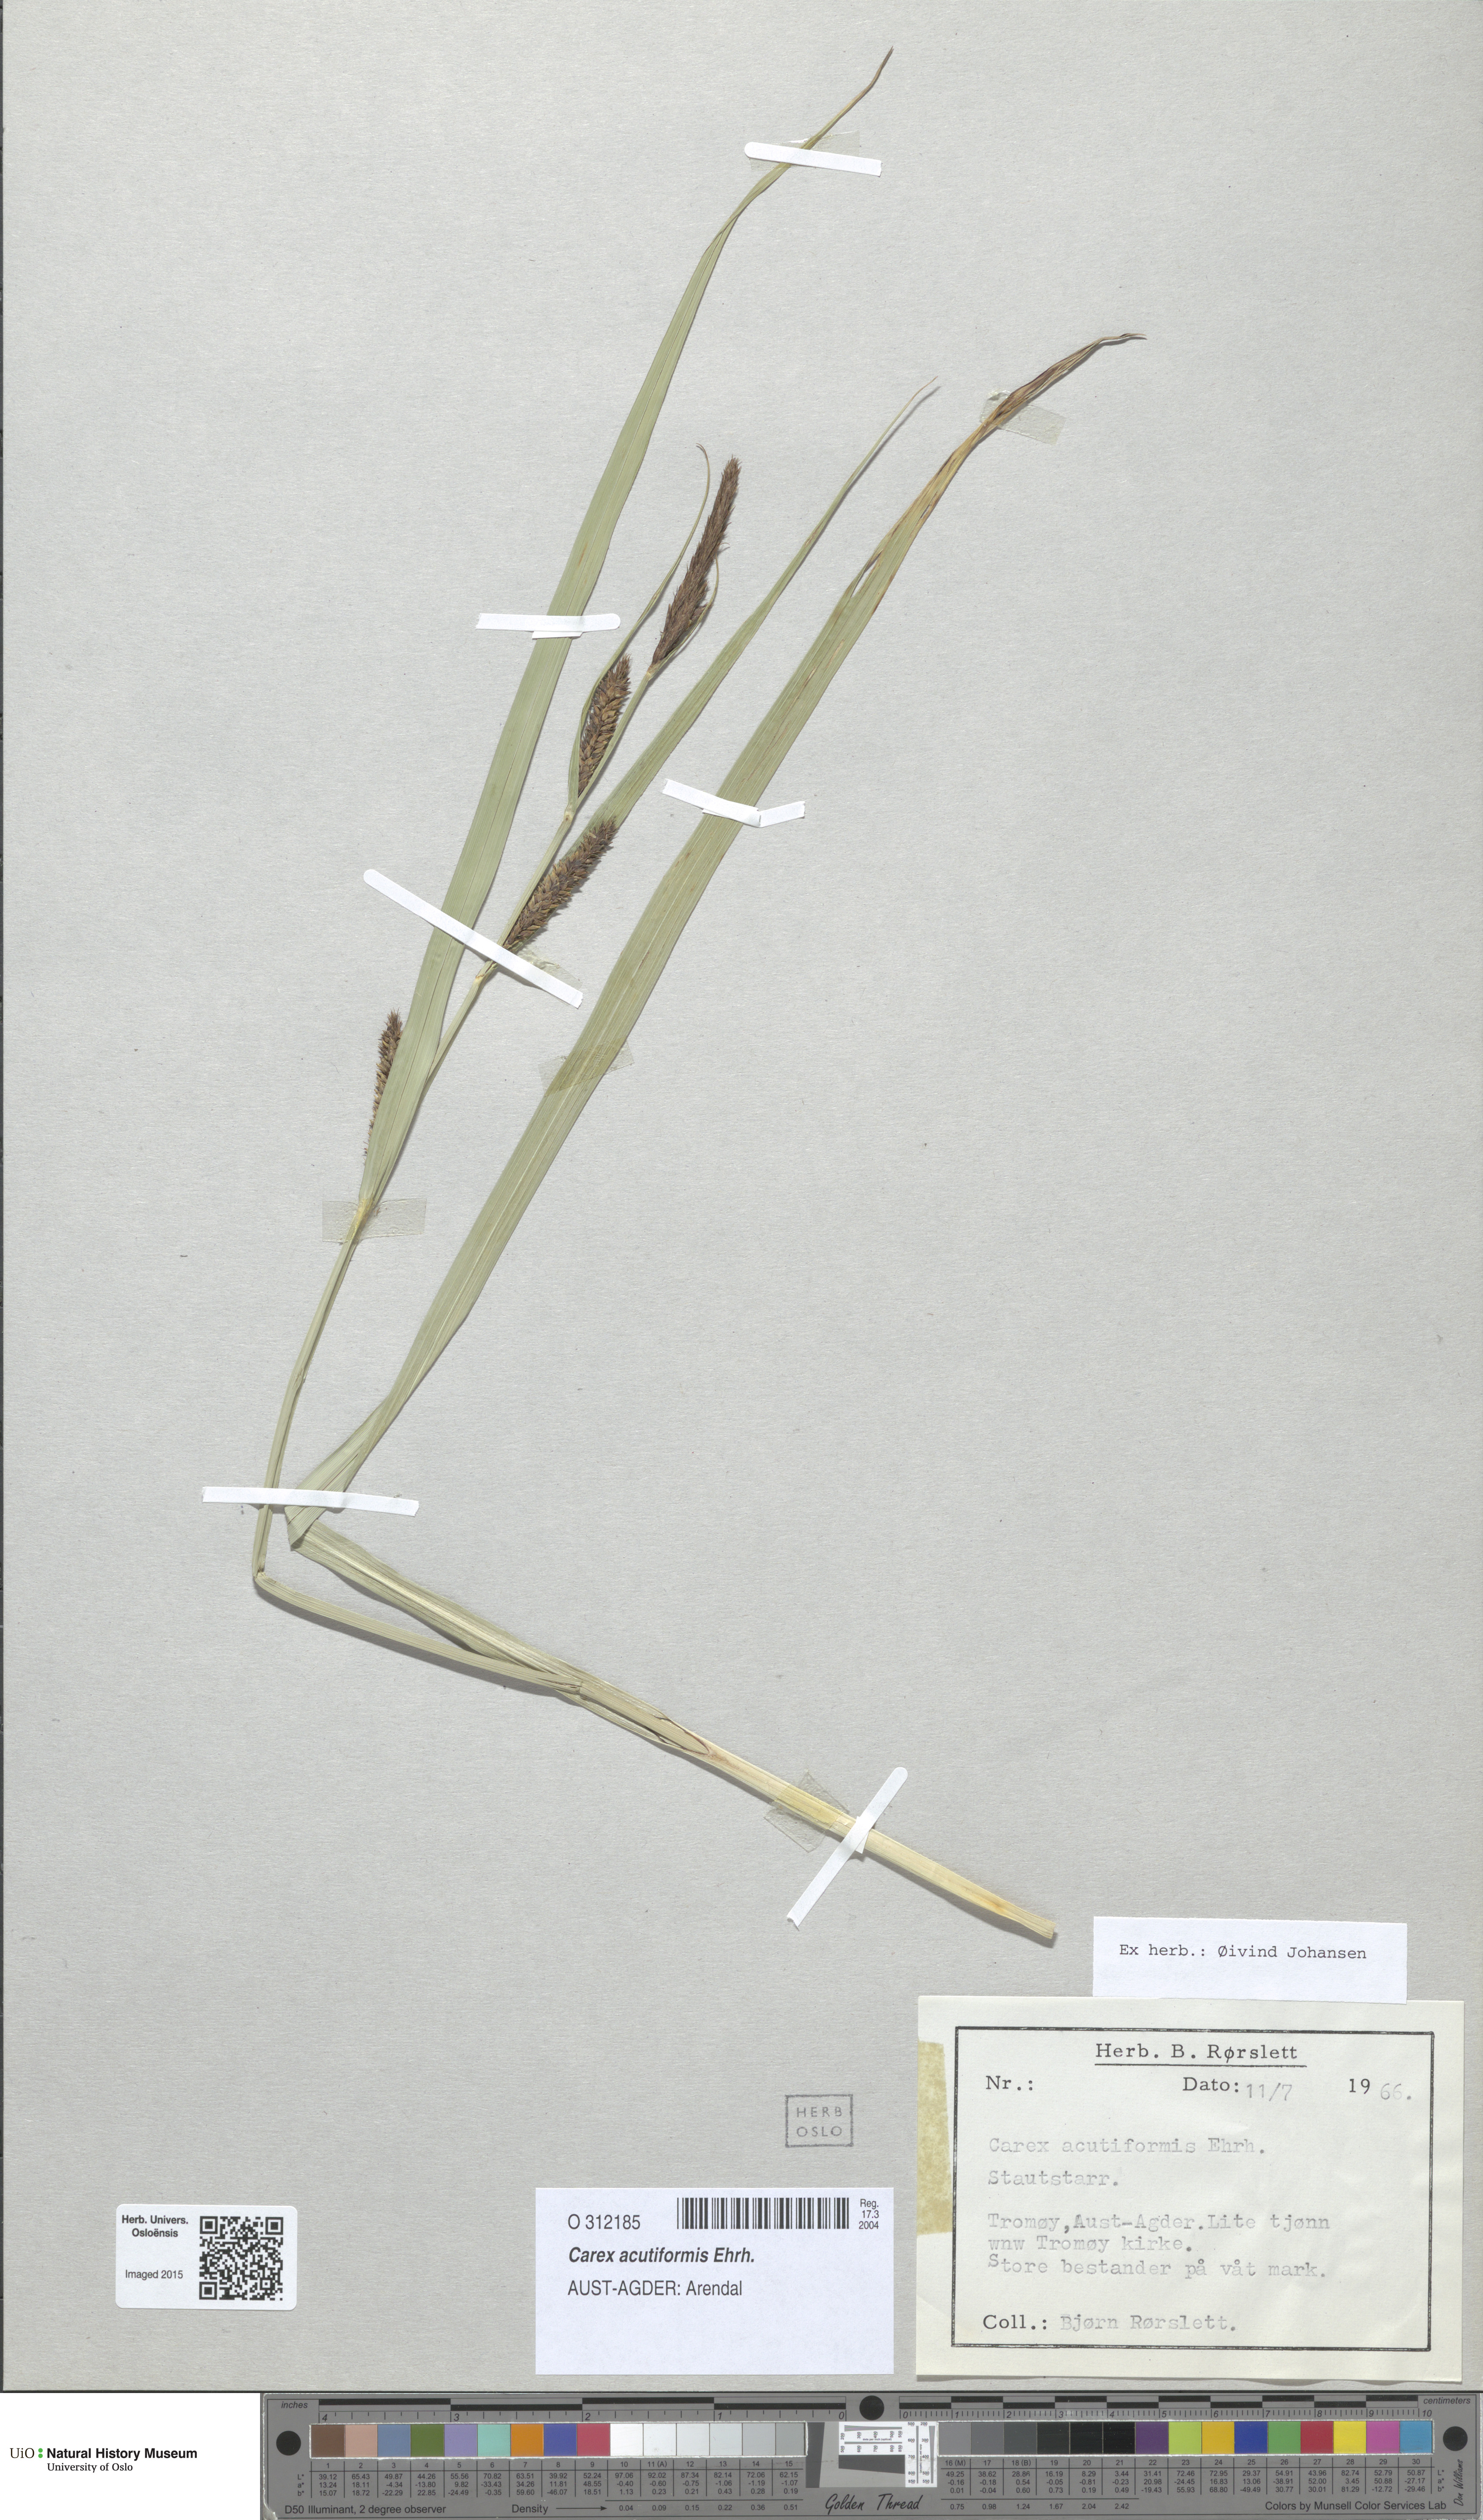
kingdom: Plantae
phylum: Tracheophyta
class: Liliopsida
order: Poales
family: Cyperaceae
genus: Carex
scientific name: Carex acutiformis
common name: Lesser pond-sedge
